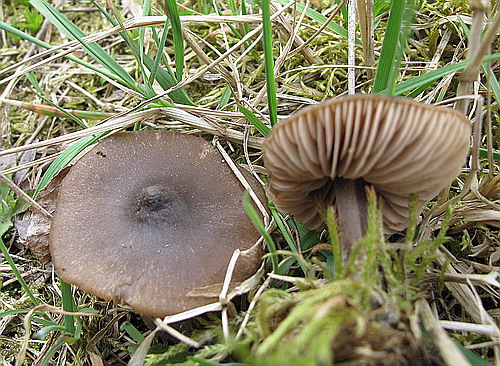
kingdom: Fungi
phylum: Basidiomycota
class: Agaricomycetes
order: Agaricales
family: Entolomataceae
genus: Entoloma
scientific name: Entoloma vernum
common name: vår-rødblad
